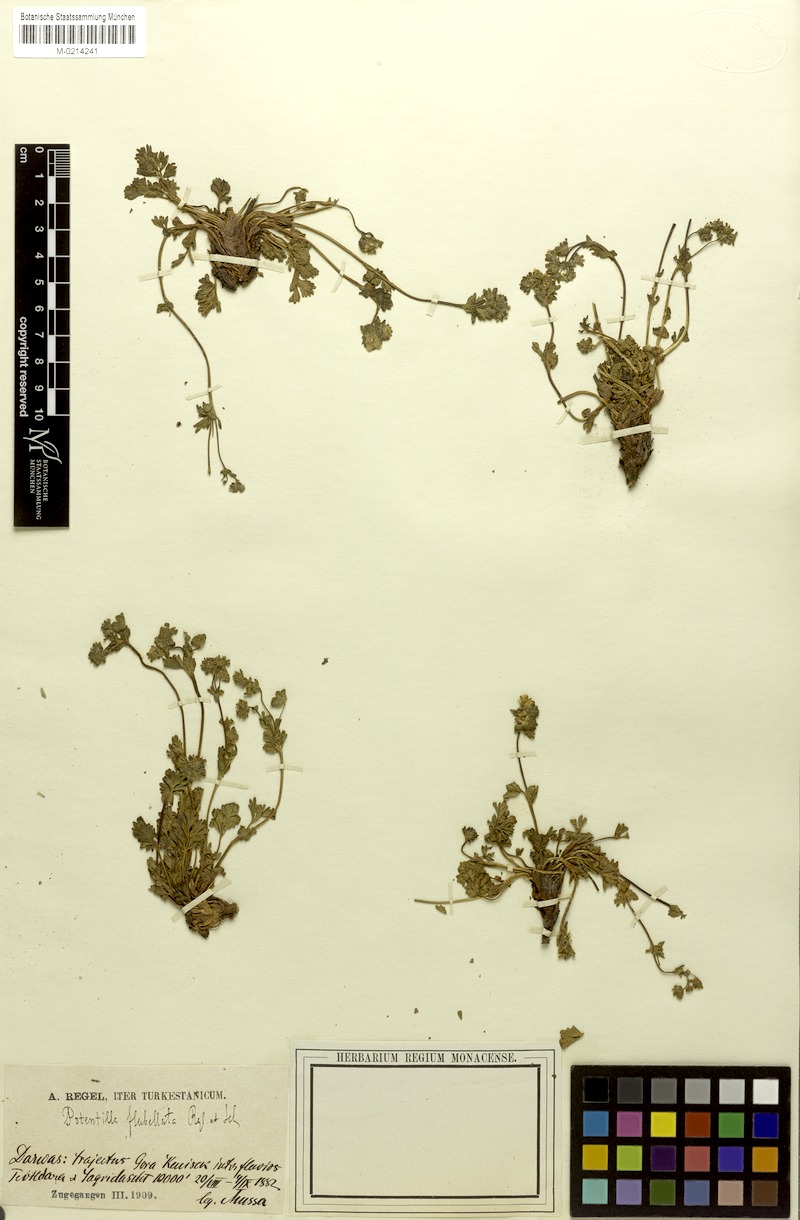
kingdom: Plantae
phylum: Tracheophyta
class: Magnoliopsida
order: Rosales
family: Rosaceae
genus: Potentilla
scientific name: Potentilla flabellata
